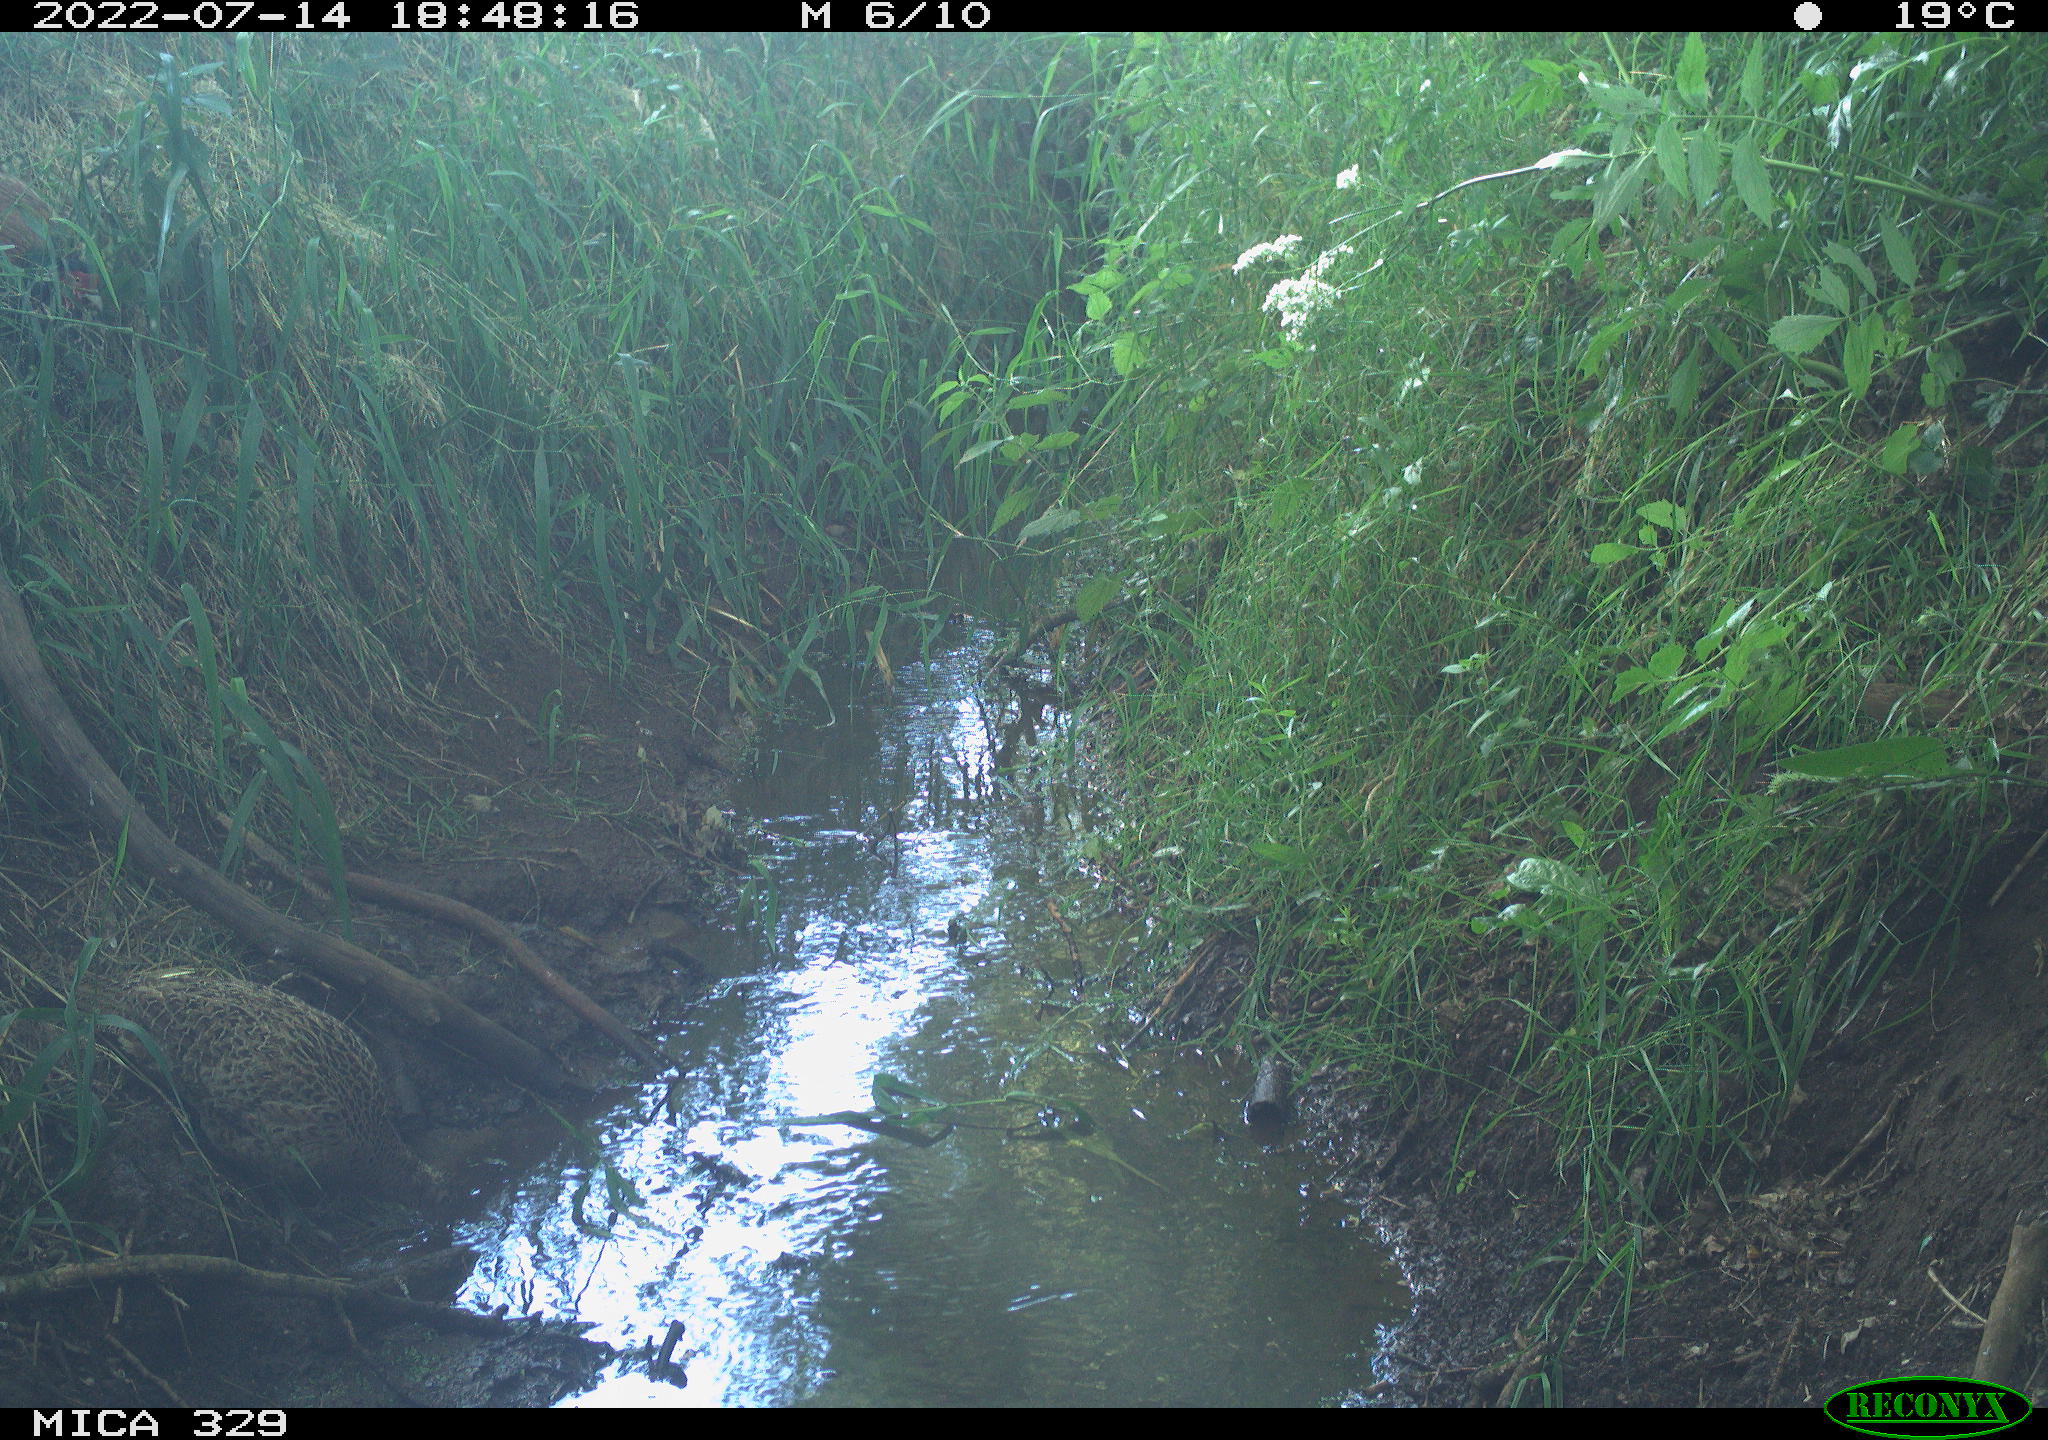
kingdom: Animalia
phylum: Chordata
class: Aves
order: Galliformes
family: Phasianidae
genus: Phasianus
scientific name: Phasianus colchicus
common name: Common pheasant
